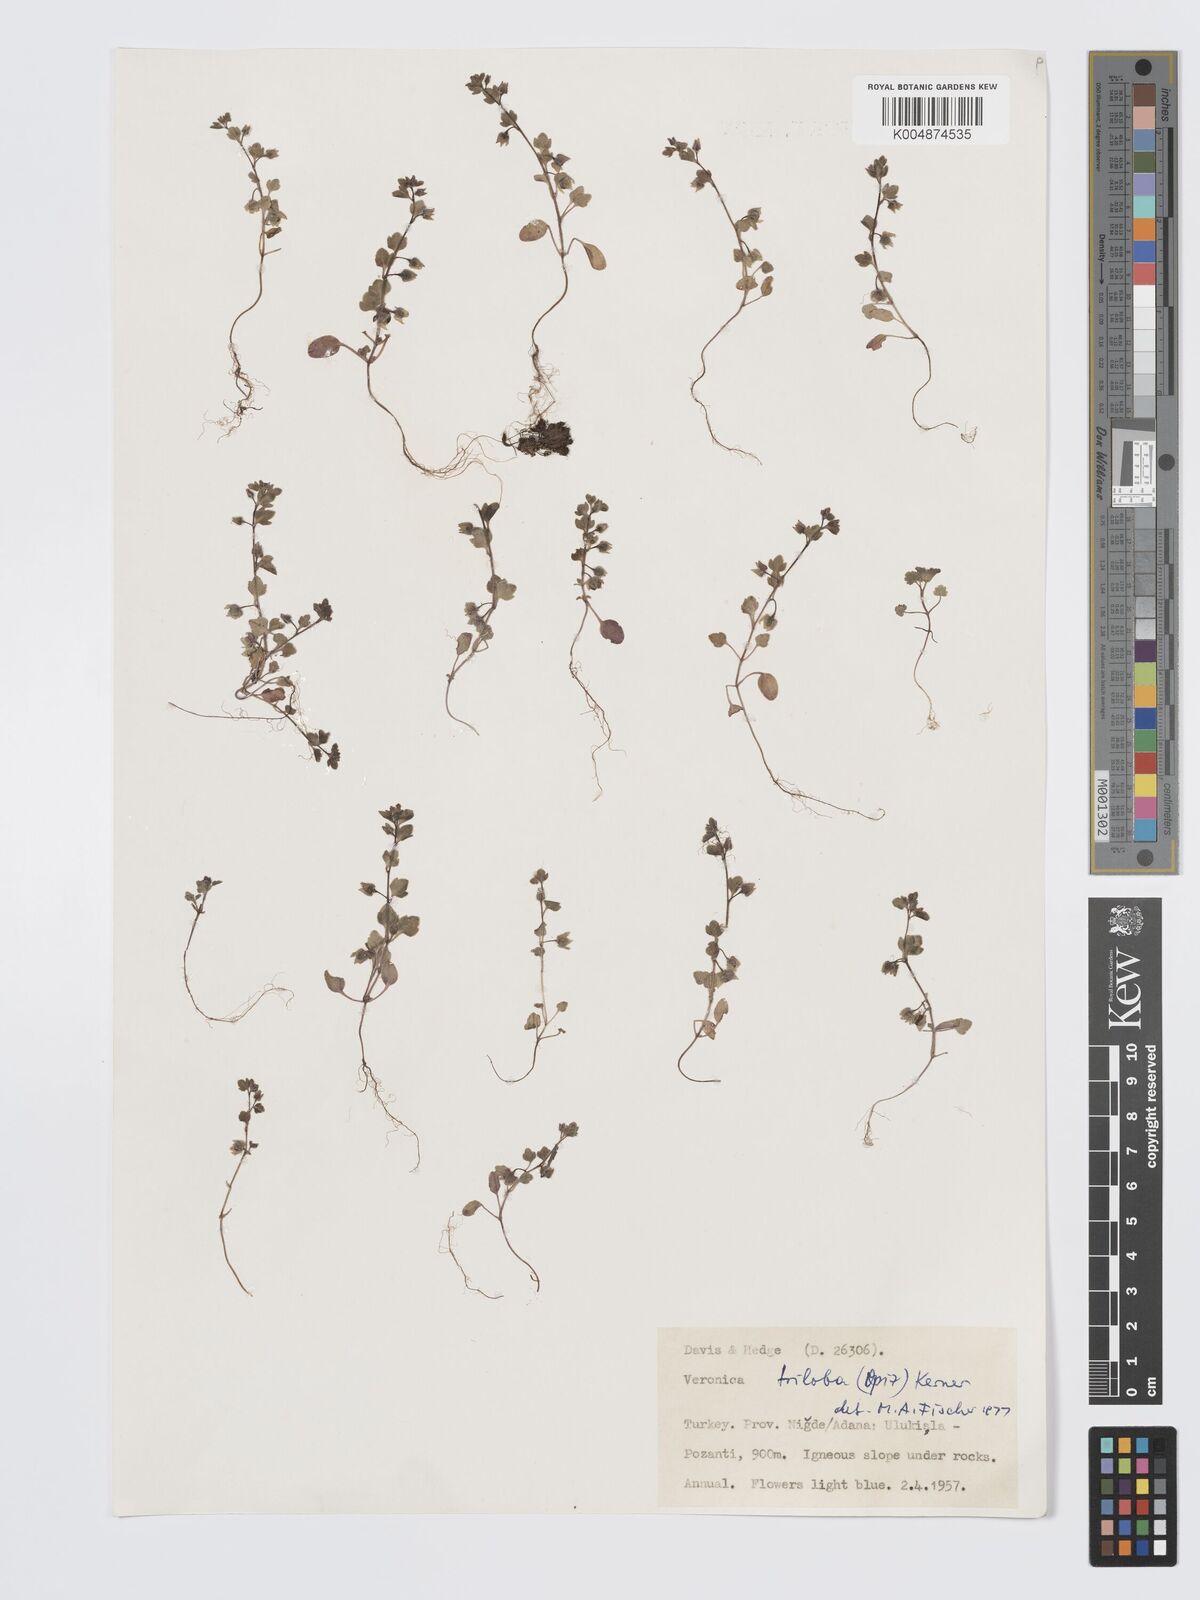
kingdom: Plantae
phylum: Tracheophyta
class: Magnoliopsida
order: Lamiales
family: Plantaginaceae
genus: Veronica
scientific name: Veronica triloba
